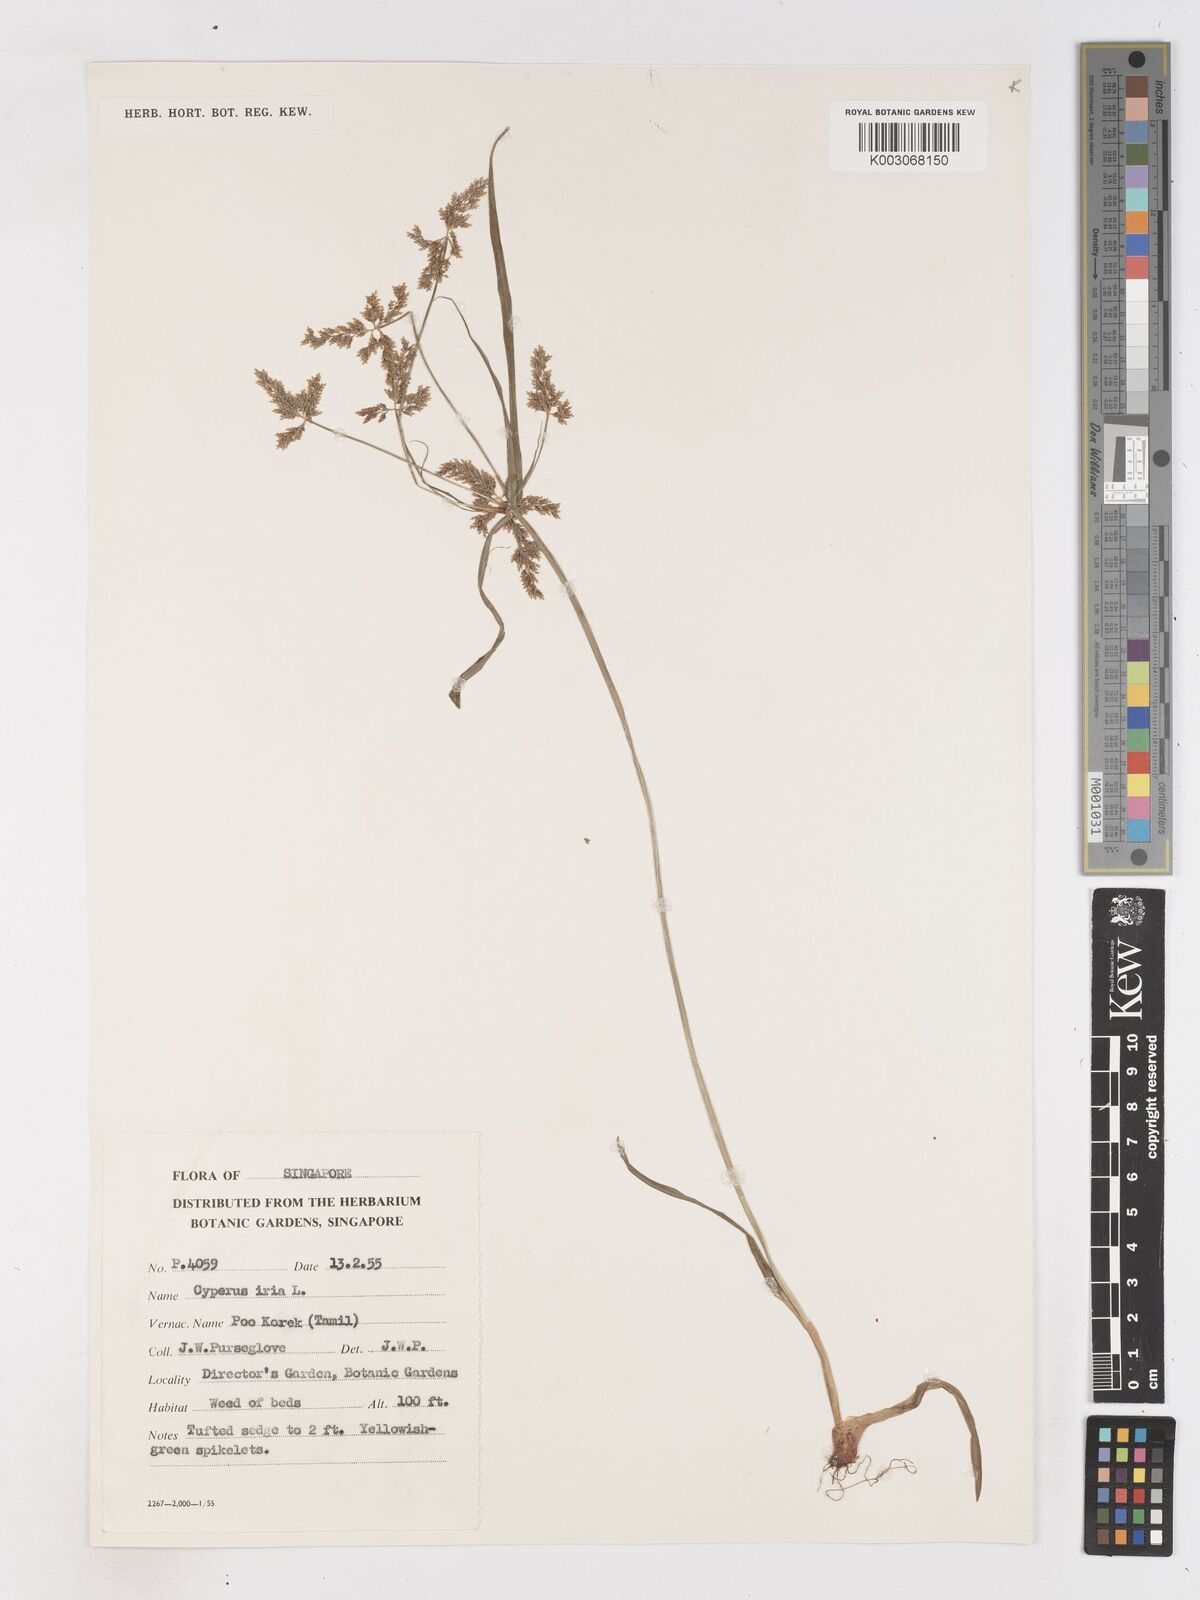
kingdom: Plantae
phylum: Tracheophyta
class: Liliopsida
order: Poales
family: Cyperaceae
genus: Cyperus
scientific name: Cyperus iria
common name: Ricefield flatsedge
